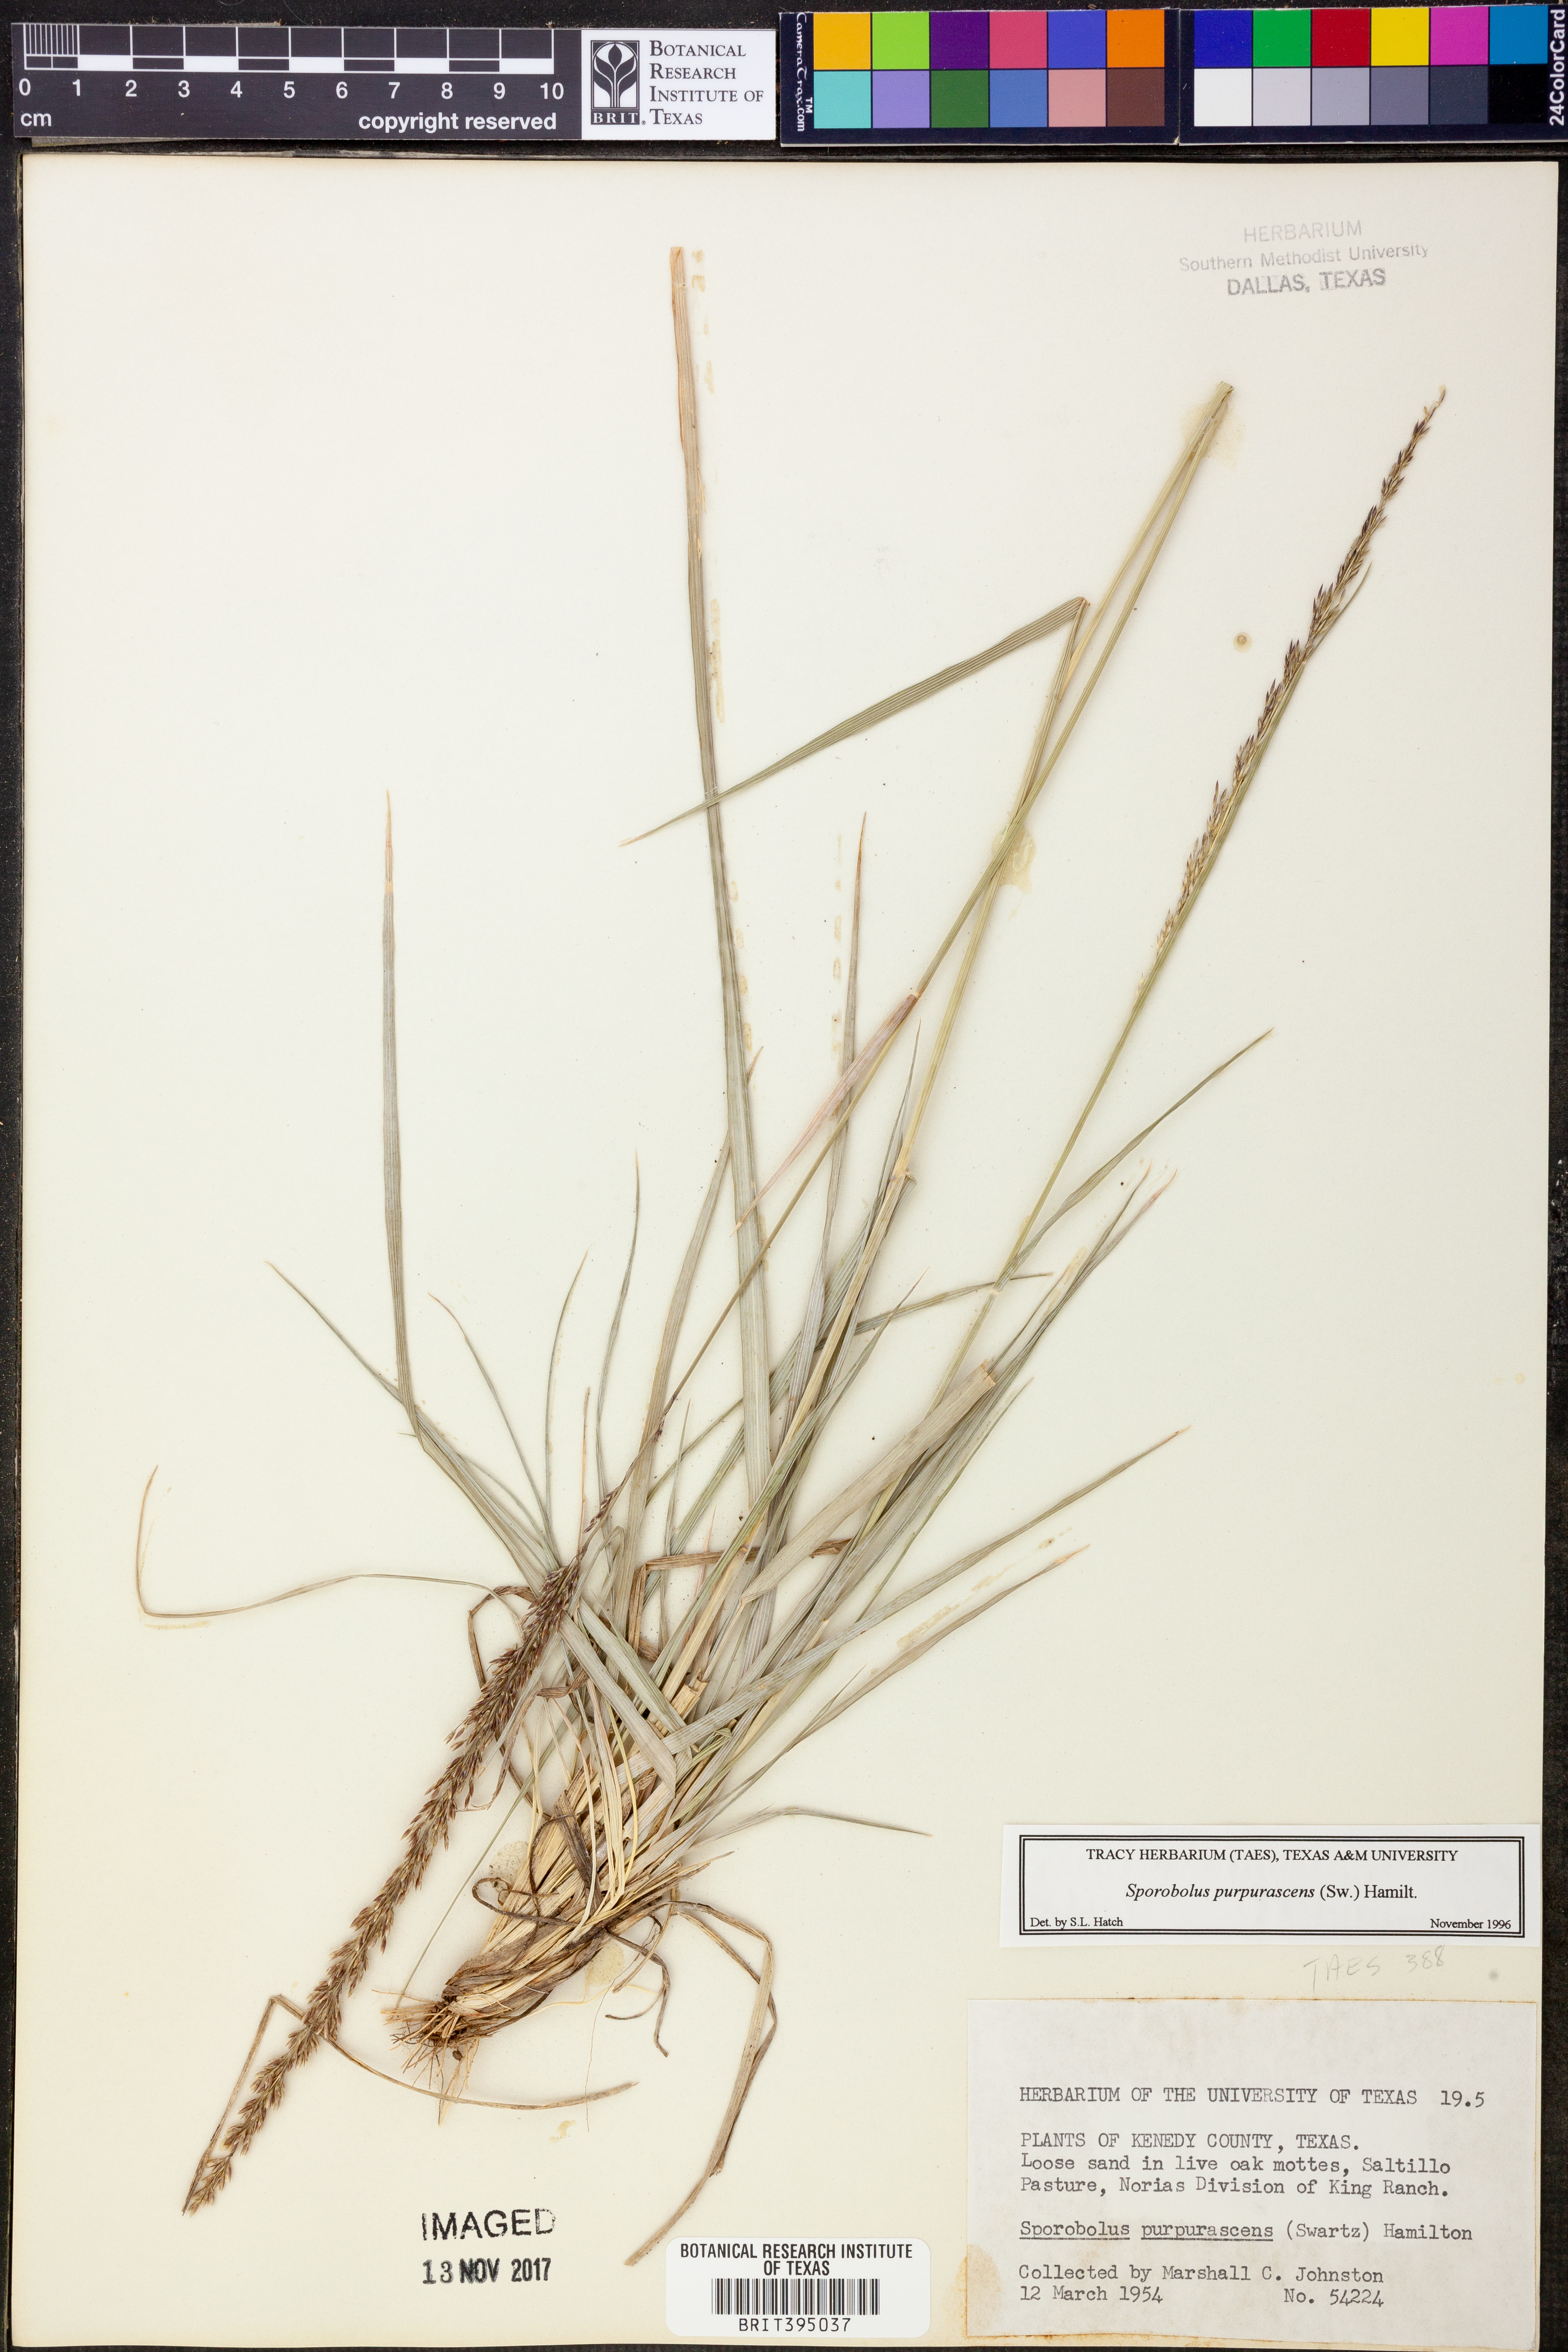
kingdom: Plantae
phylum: Tracheophyta
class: Liliopsida
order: Poales
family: Poaceae
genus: Sporobolus
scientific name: Sporobolus purpurascens
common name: Purple dropseed
